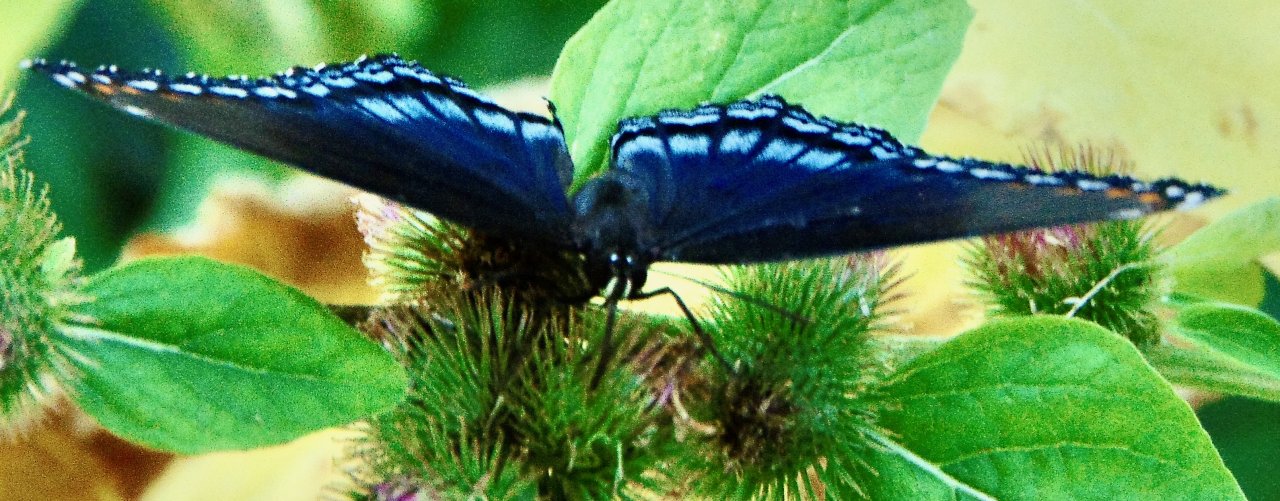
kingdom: Animalia
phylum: Arthropoda
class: Insecta
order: Lepidoptera
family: Nymphalidae
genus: Limenitis
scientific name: Limenitis astyanax
